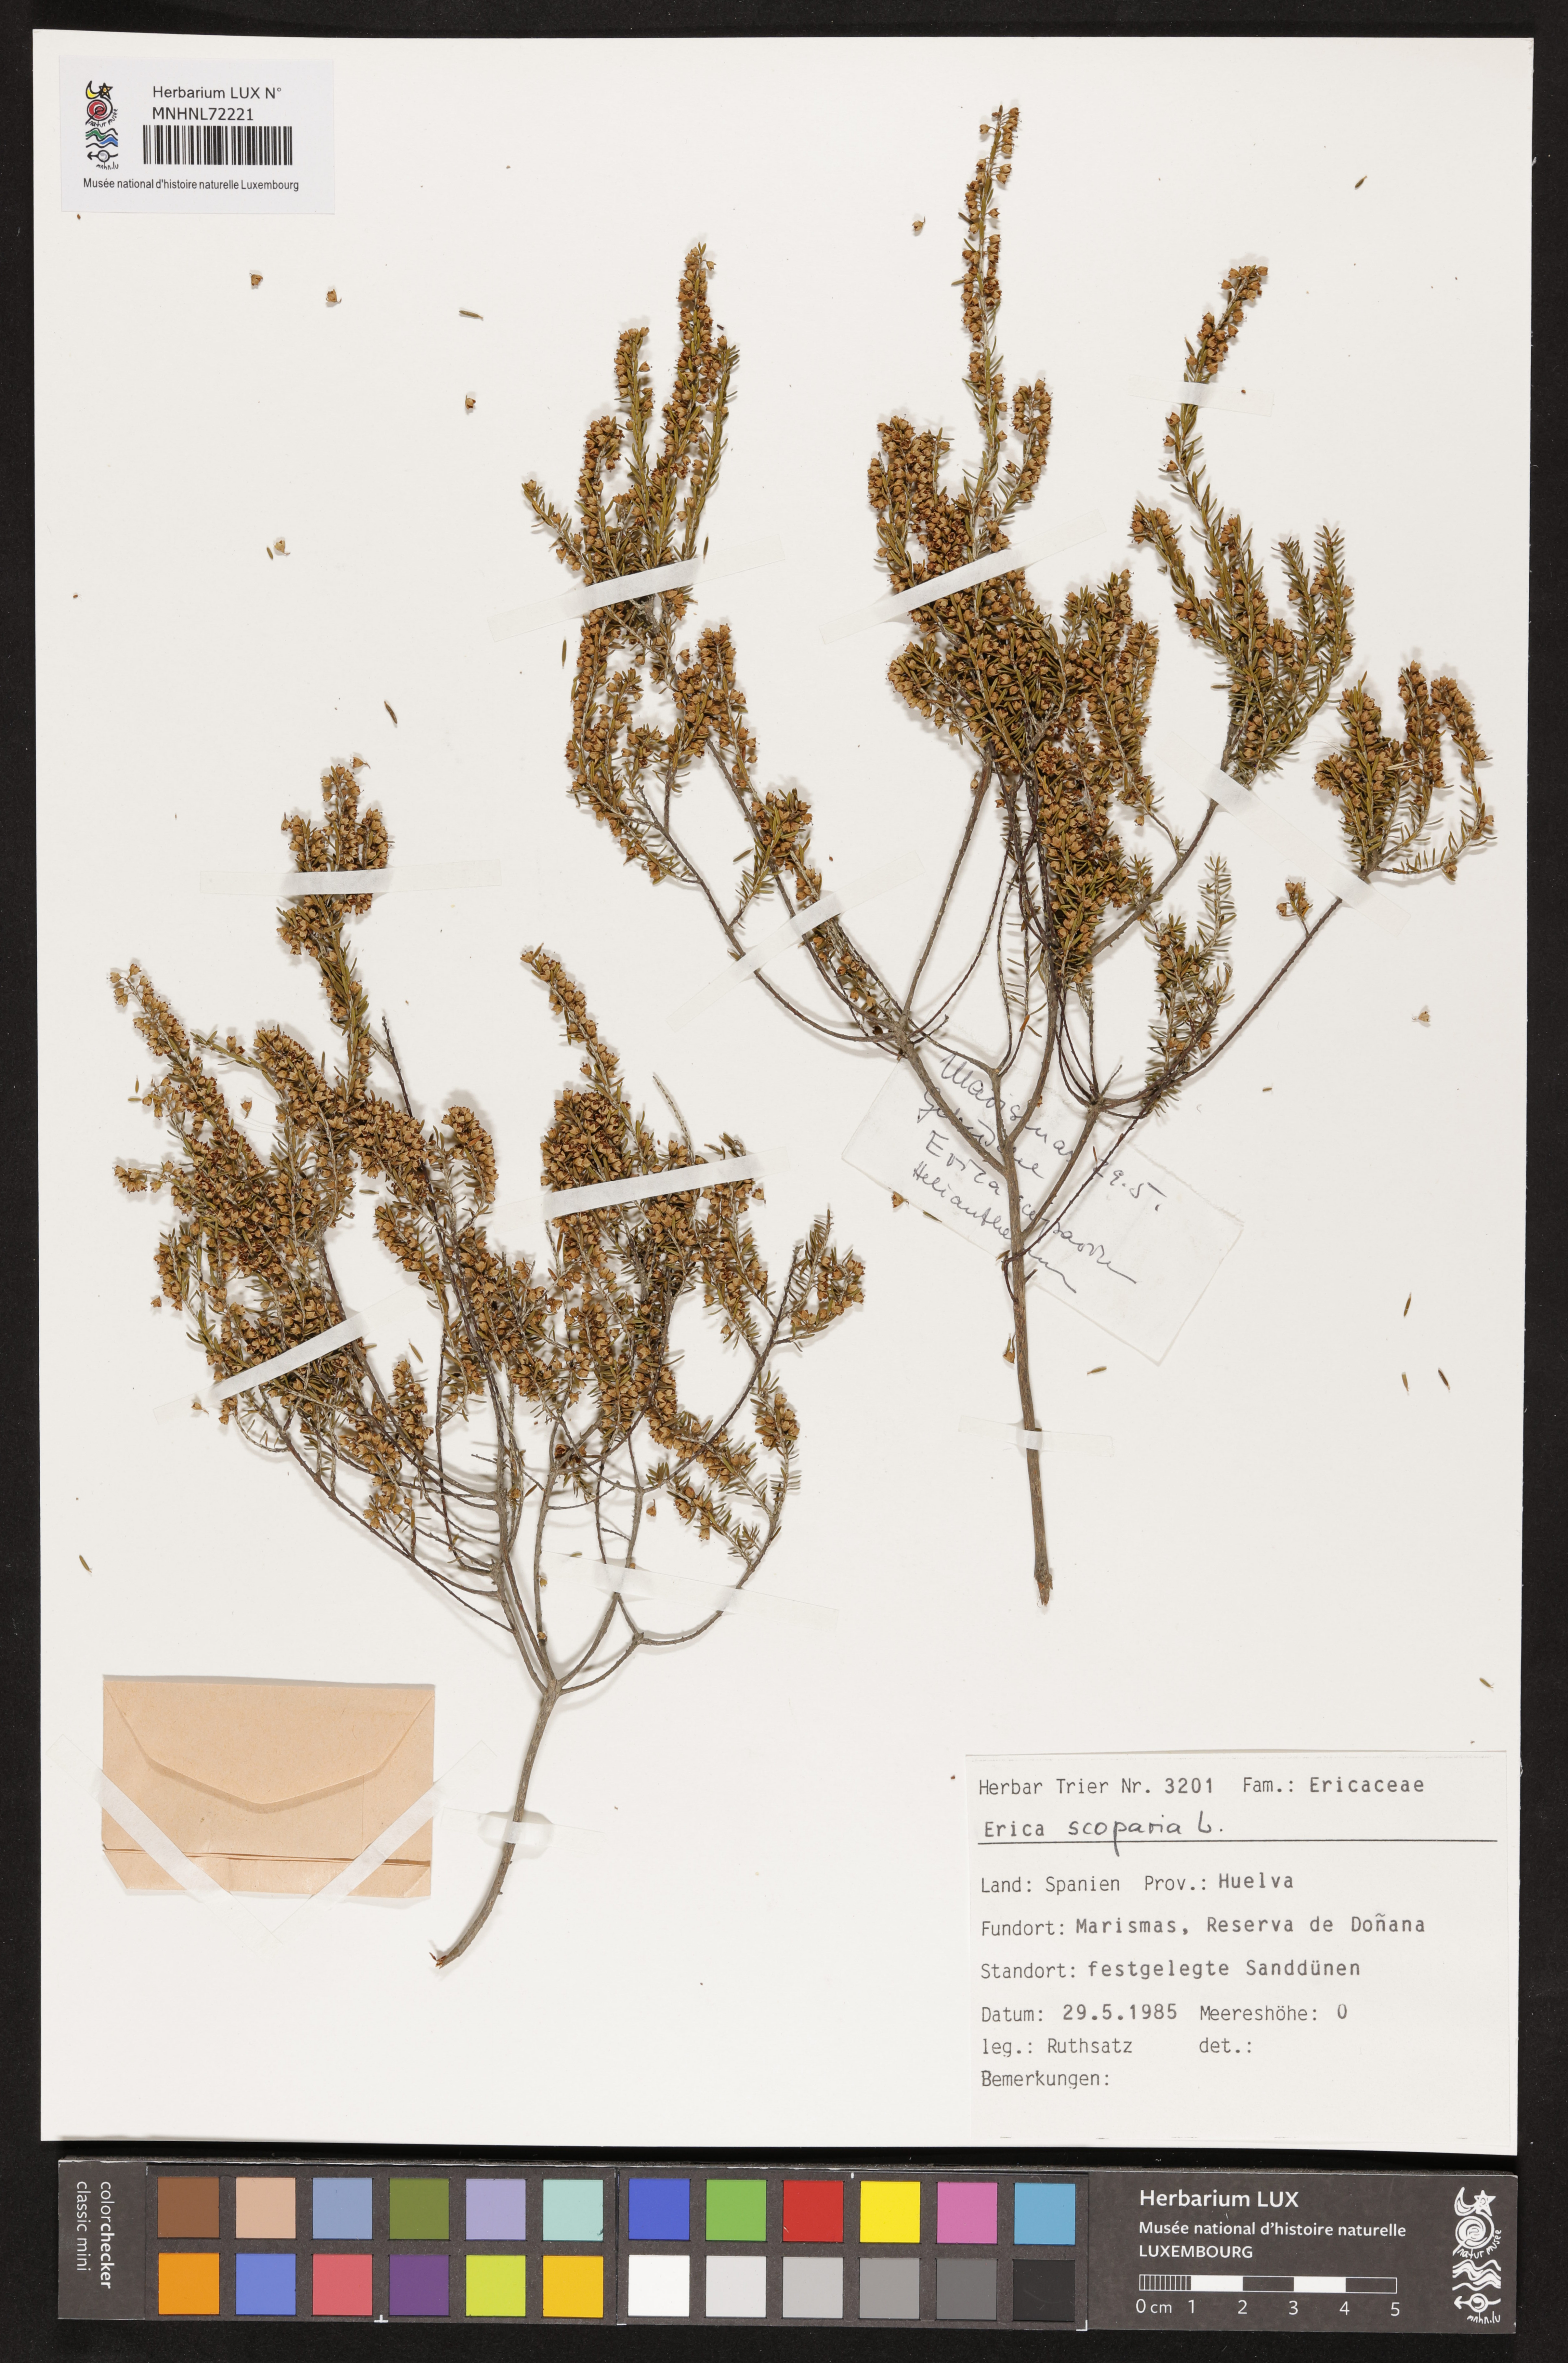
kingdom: Plantae
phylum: Tracheophyta
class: Magnoliopsida
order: Ericales
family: Ericaceae
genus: Erica
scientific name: Erica scoparia
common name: Green heather
